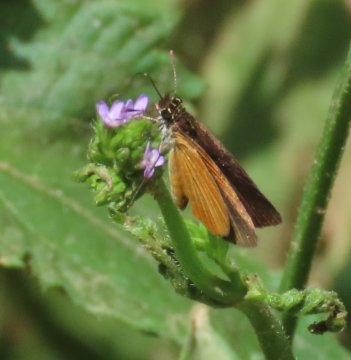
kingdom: Animalia
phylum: Arthropoda
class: Insecta
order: Lepidoptera
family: Hesperiidae
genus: Ancyloxypha
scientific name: Ancyloxypha numitor
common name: Least Skipper
